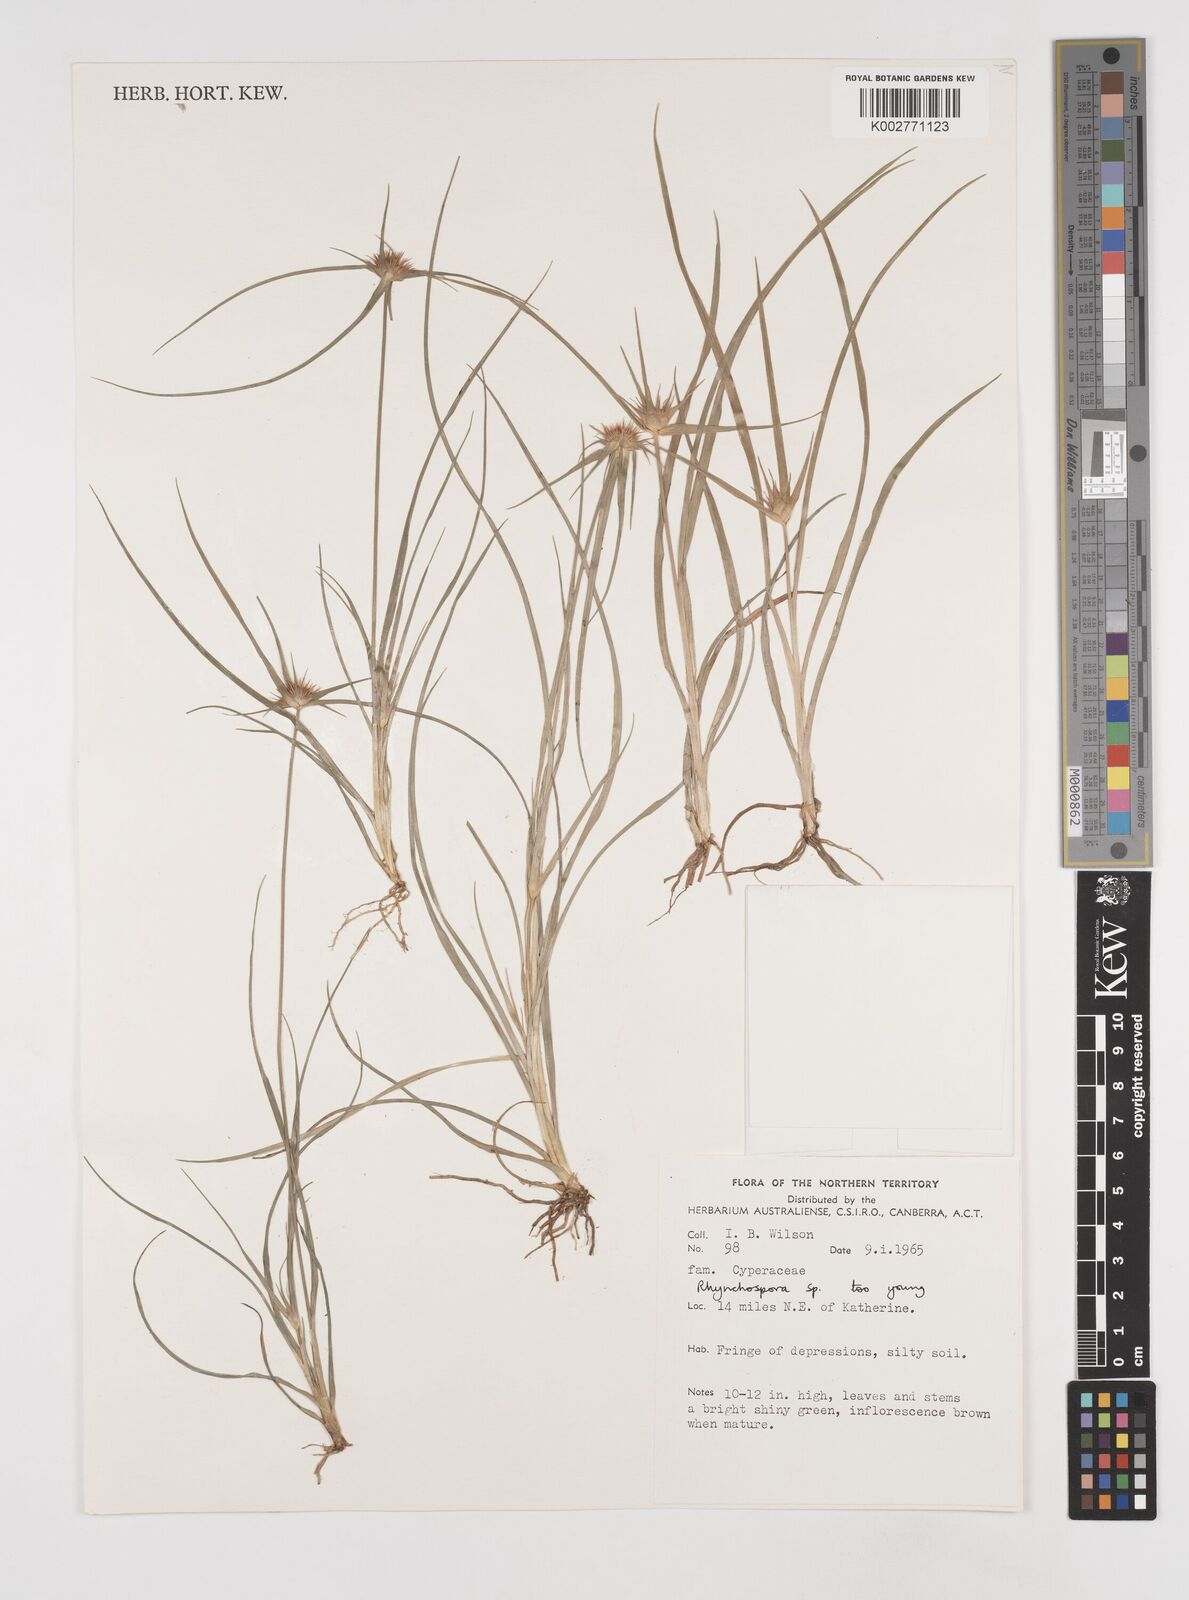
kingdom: Plantae
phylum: Tracheophyta
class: Liliopsida
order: Poales
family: Cyperaceae
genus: Rhynchospora
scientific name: Rhynchospora
